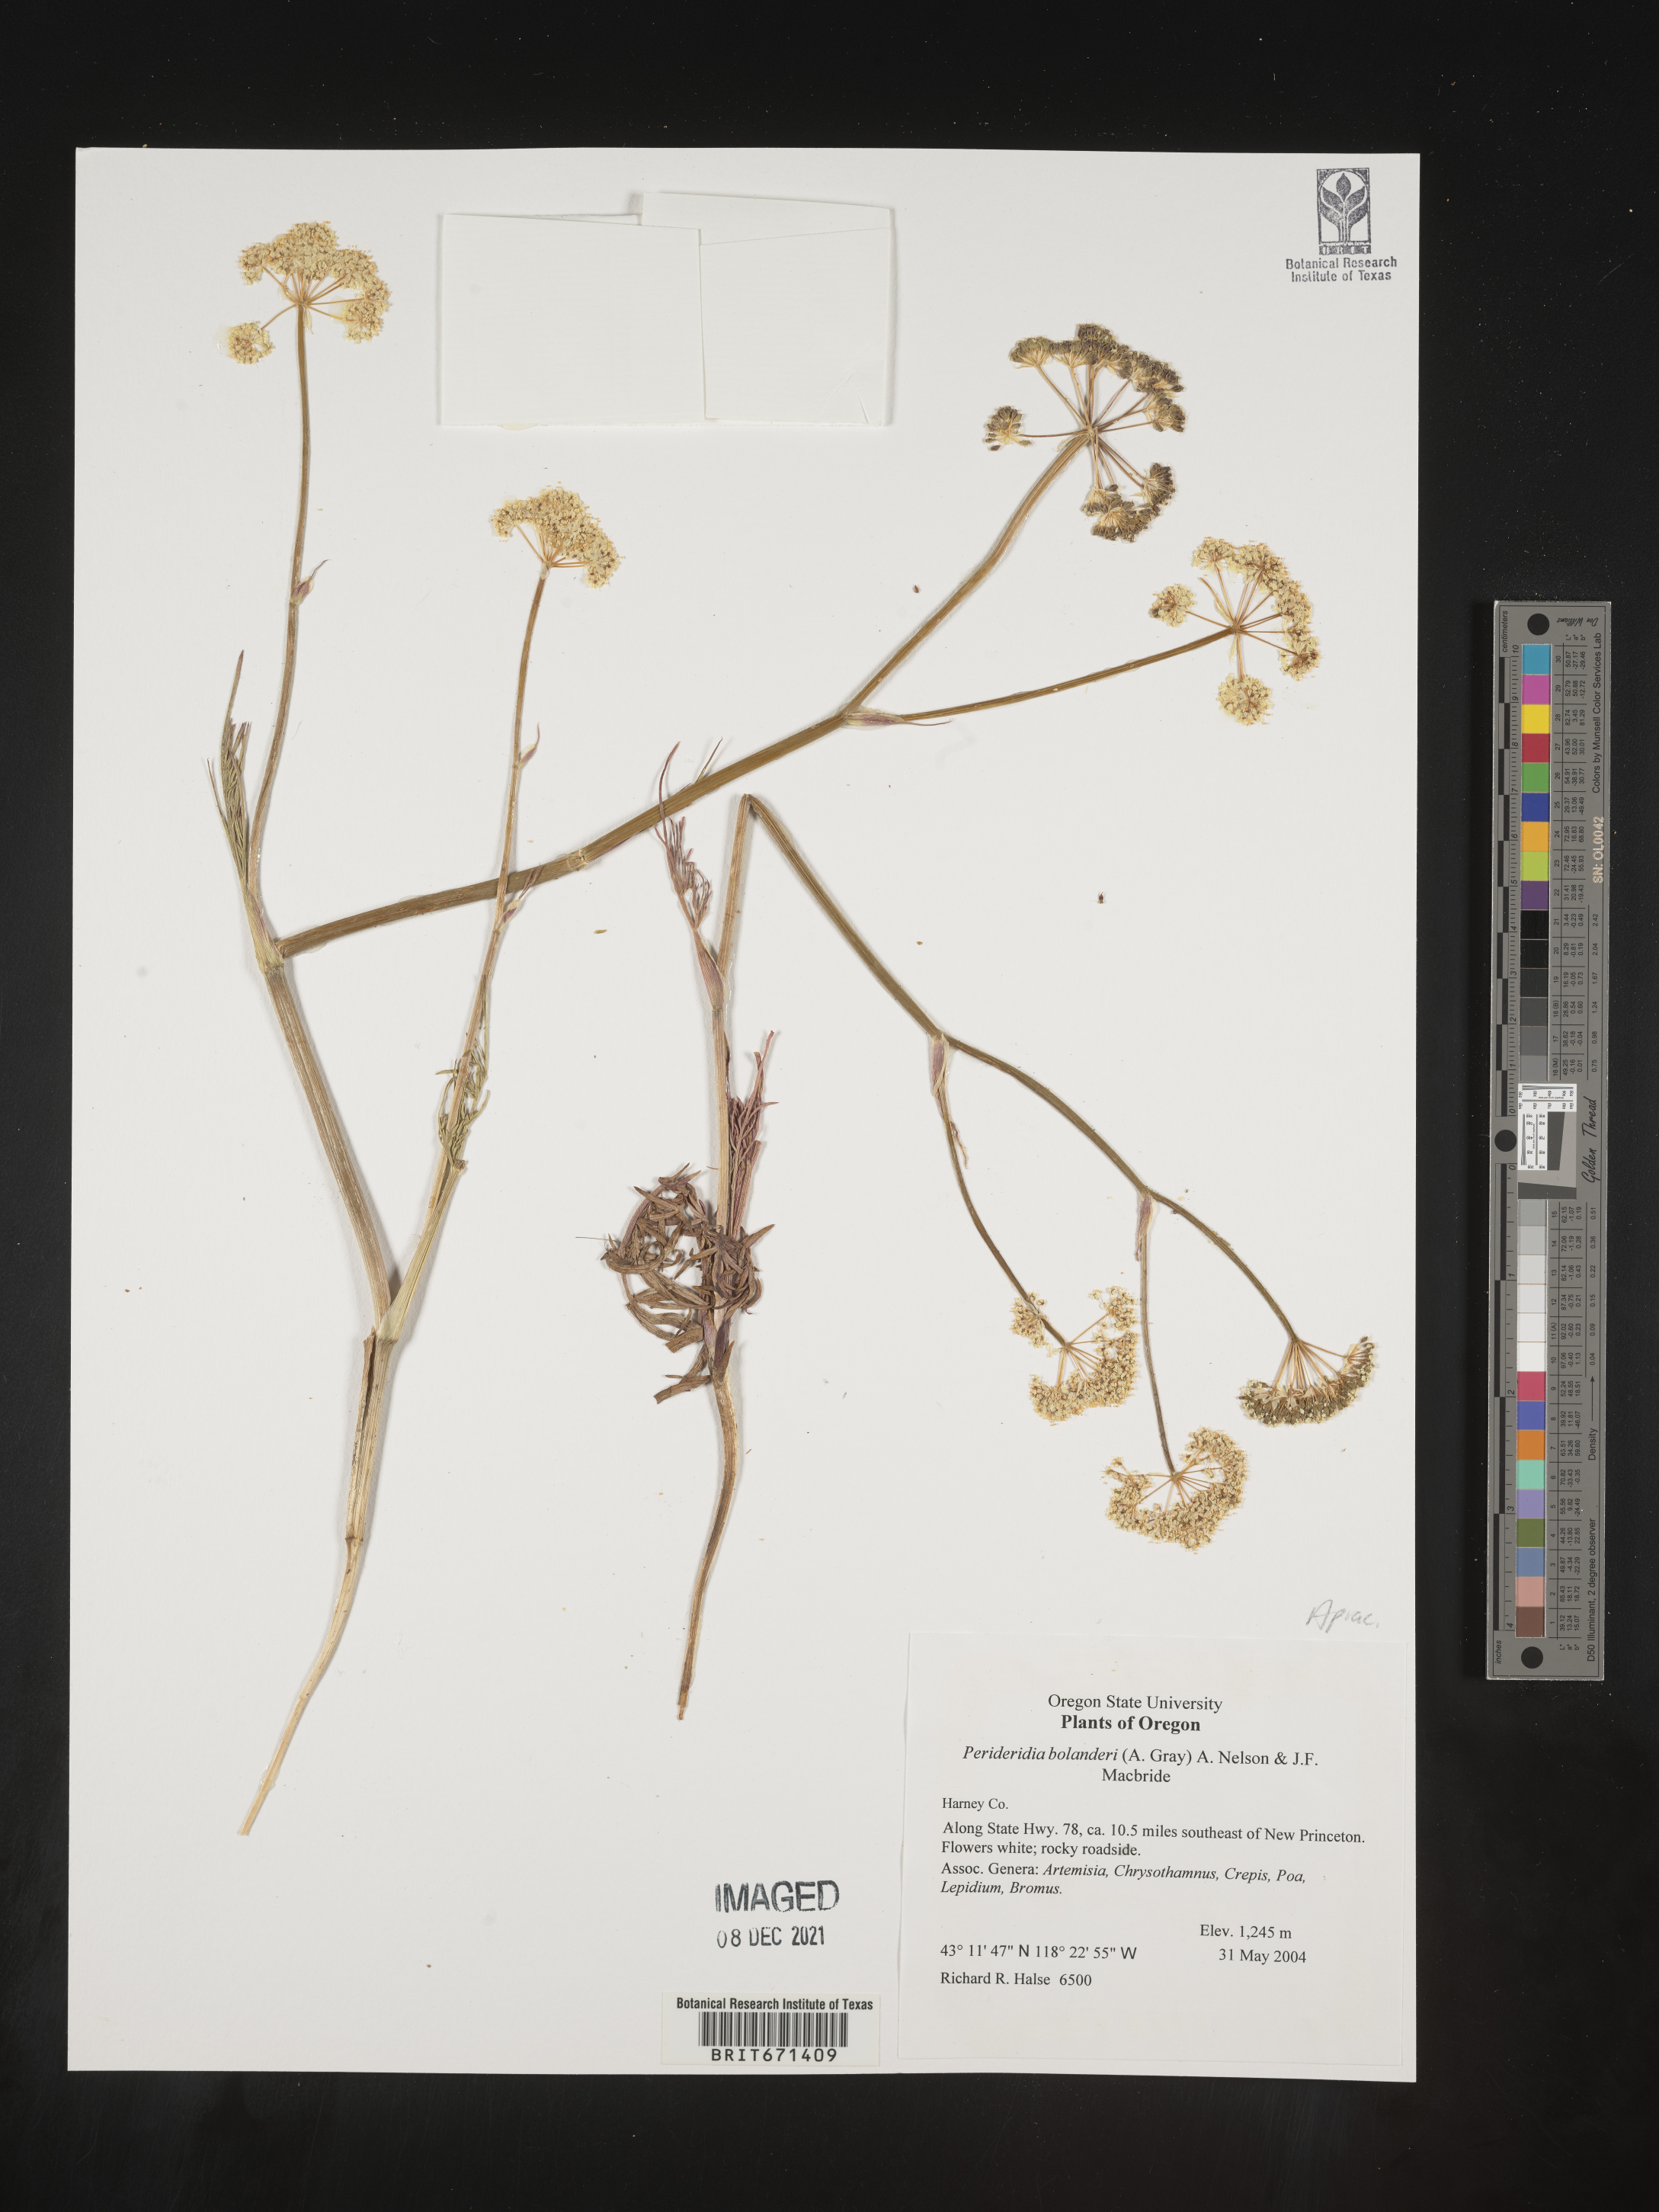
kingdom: Plantae
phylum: Tracheophyta
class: Magnoliopsida
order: Apiales
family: Apiaceae
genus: Perideridia
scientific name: Perideridia bolanderi
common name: Olasi
